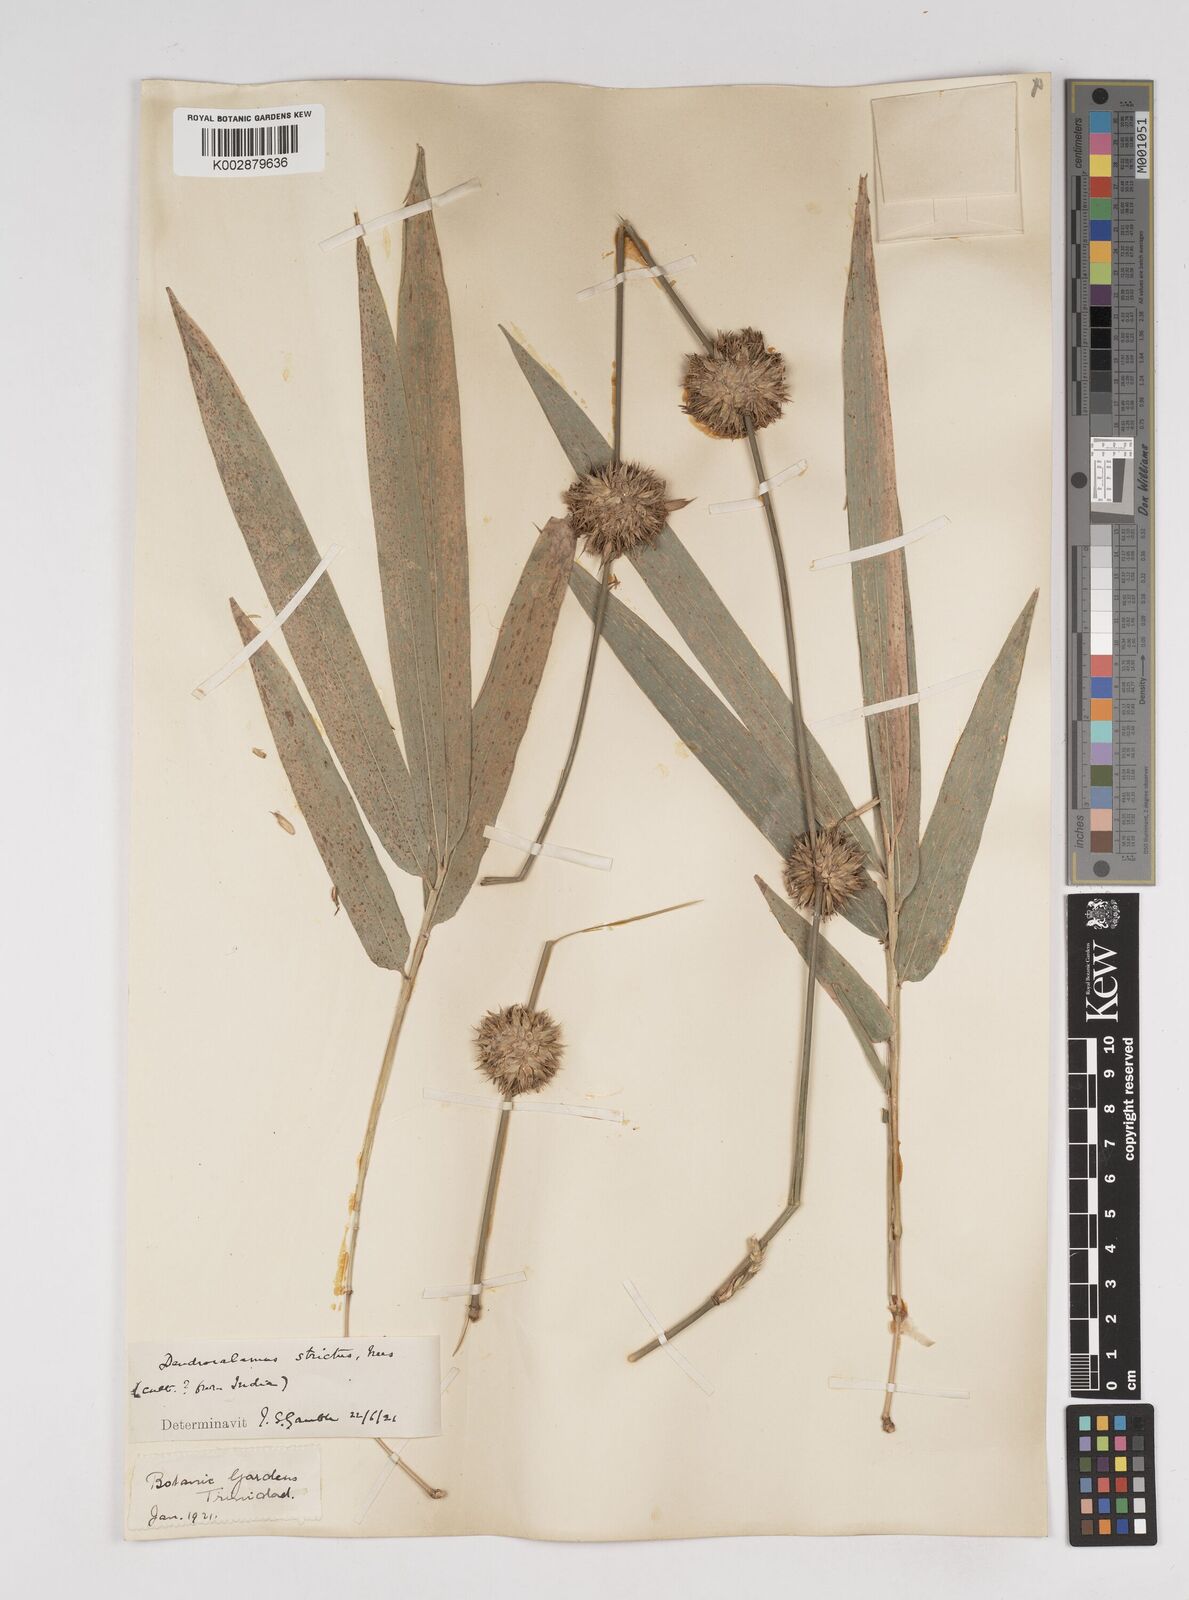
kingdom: Plantae
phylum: Tracheophyta
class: Liliopsida
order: Poales
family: Poaceae
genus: Dendrocalamus
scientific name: Dendrocalamus strictus
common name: Male bamboo
